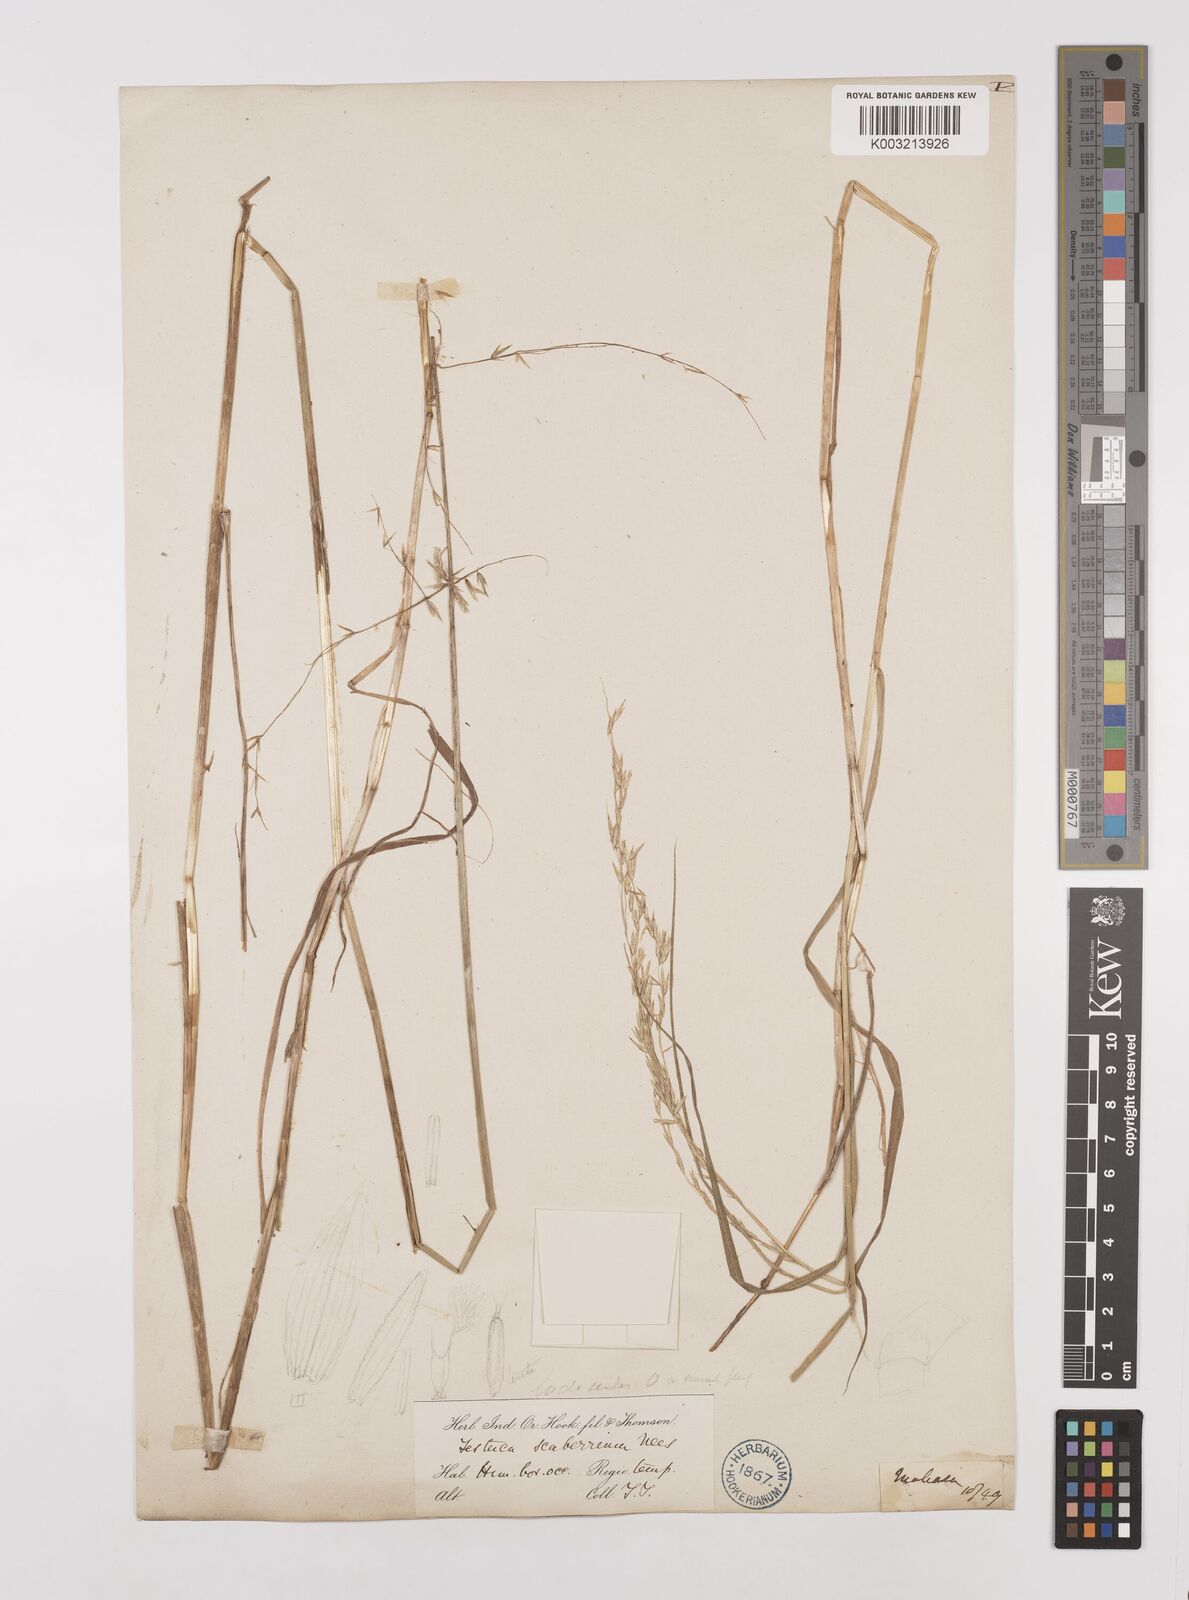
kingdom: Plantae
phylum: Tracheophyta
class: Liliopsida
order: Poales
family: Poaceae
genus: Melica
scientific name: Melica scaberrima
